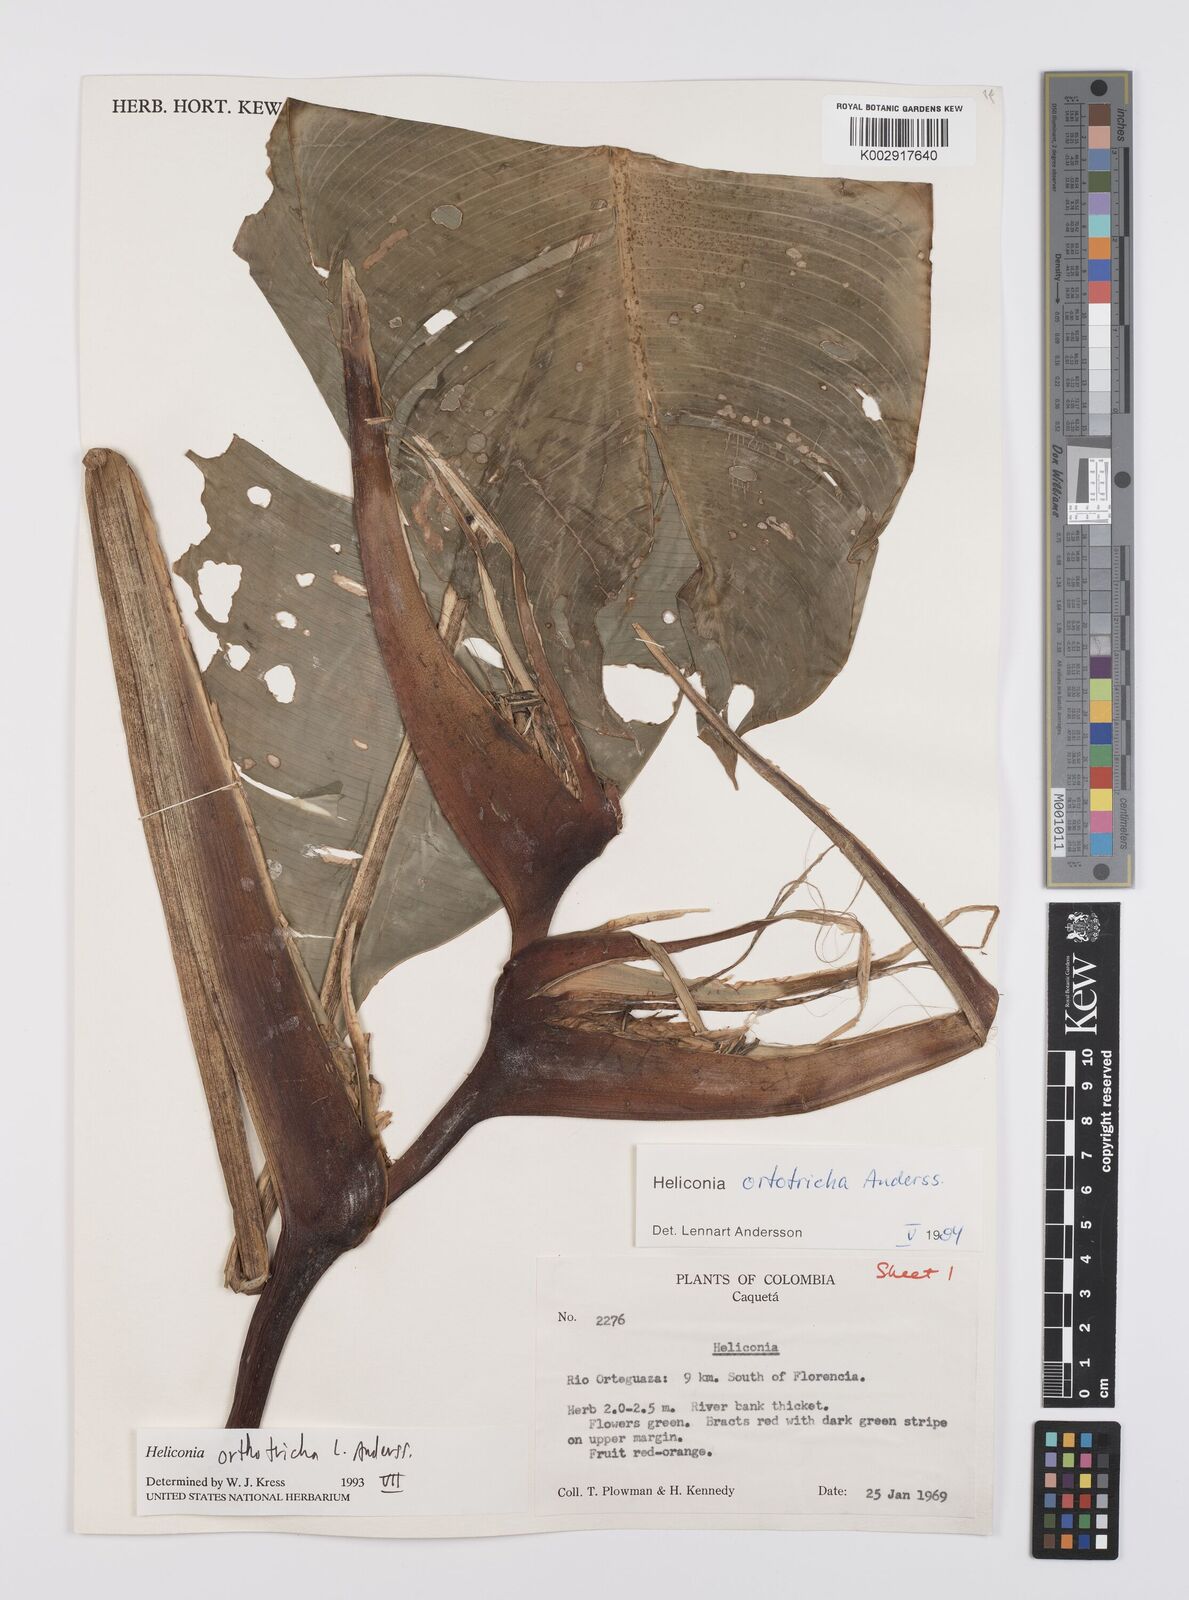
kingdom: Plantae
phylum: Tracheophyta
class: Liliopsida
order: Zingiberales
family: Heliconiaceae
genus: Heliconia
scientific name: Heliconia orthotricha
